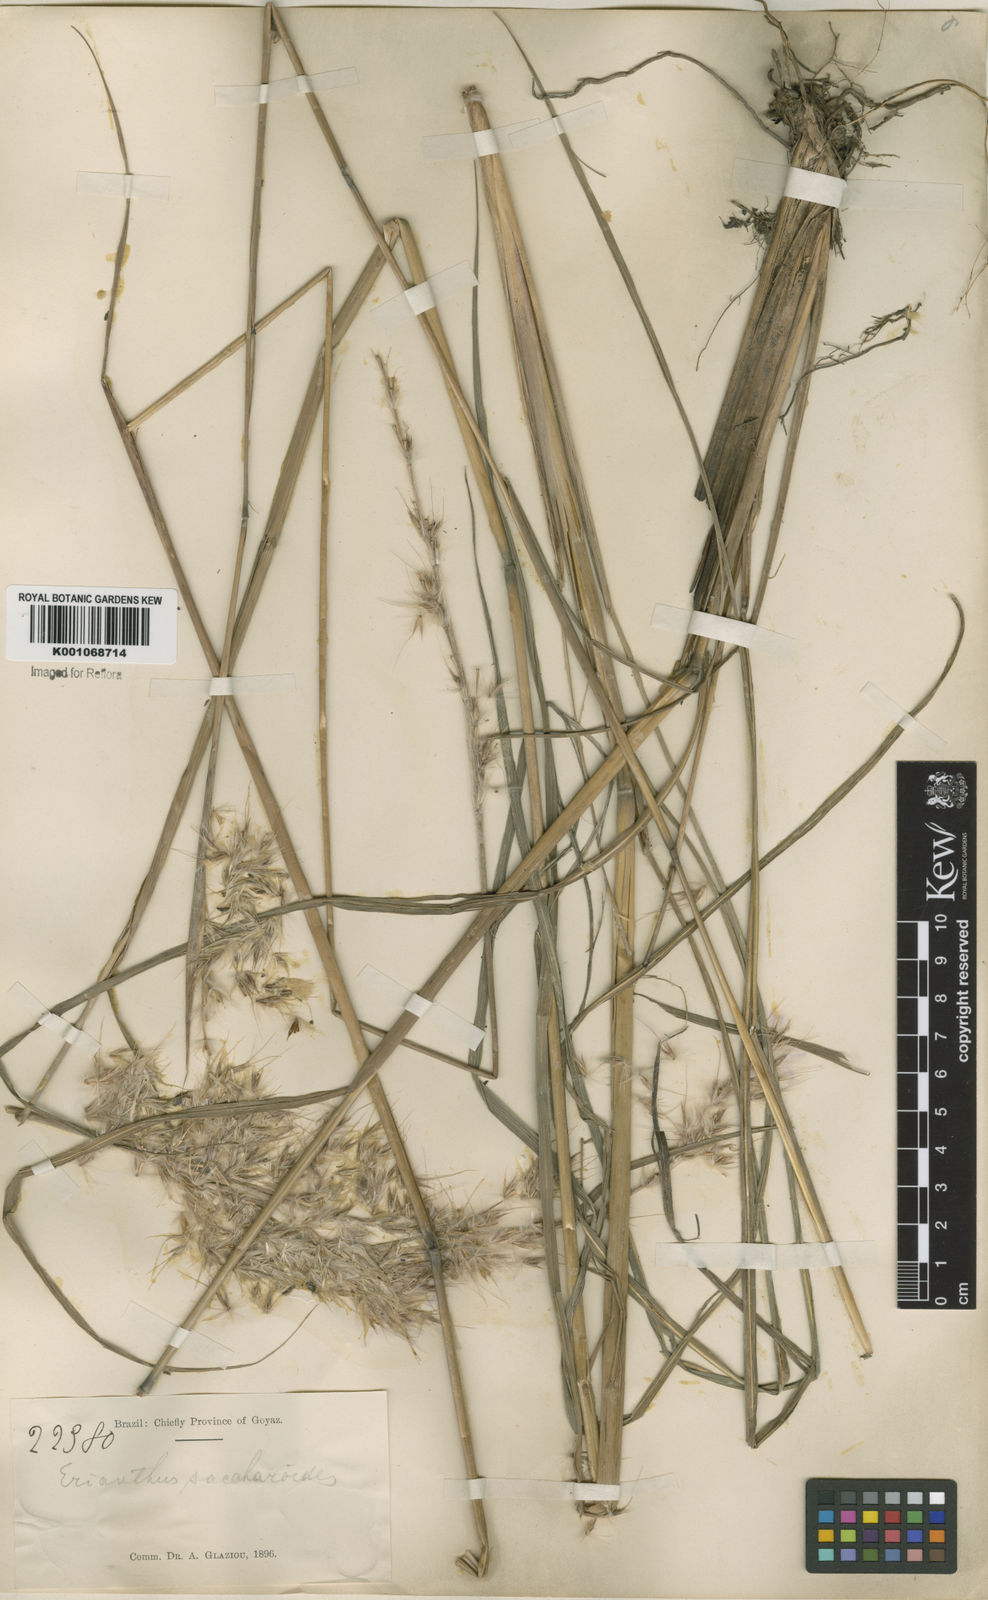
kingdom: Plantae
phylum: Tracheophyta
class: Liliopsida
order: Poales
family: Poaceae
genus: Saccharum
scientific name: Saccharum angustifolium
